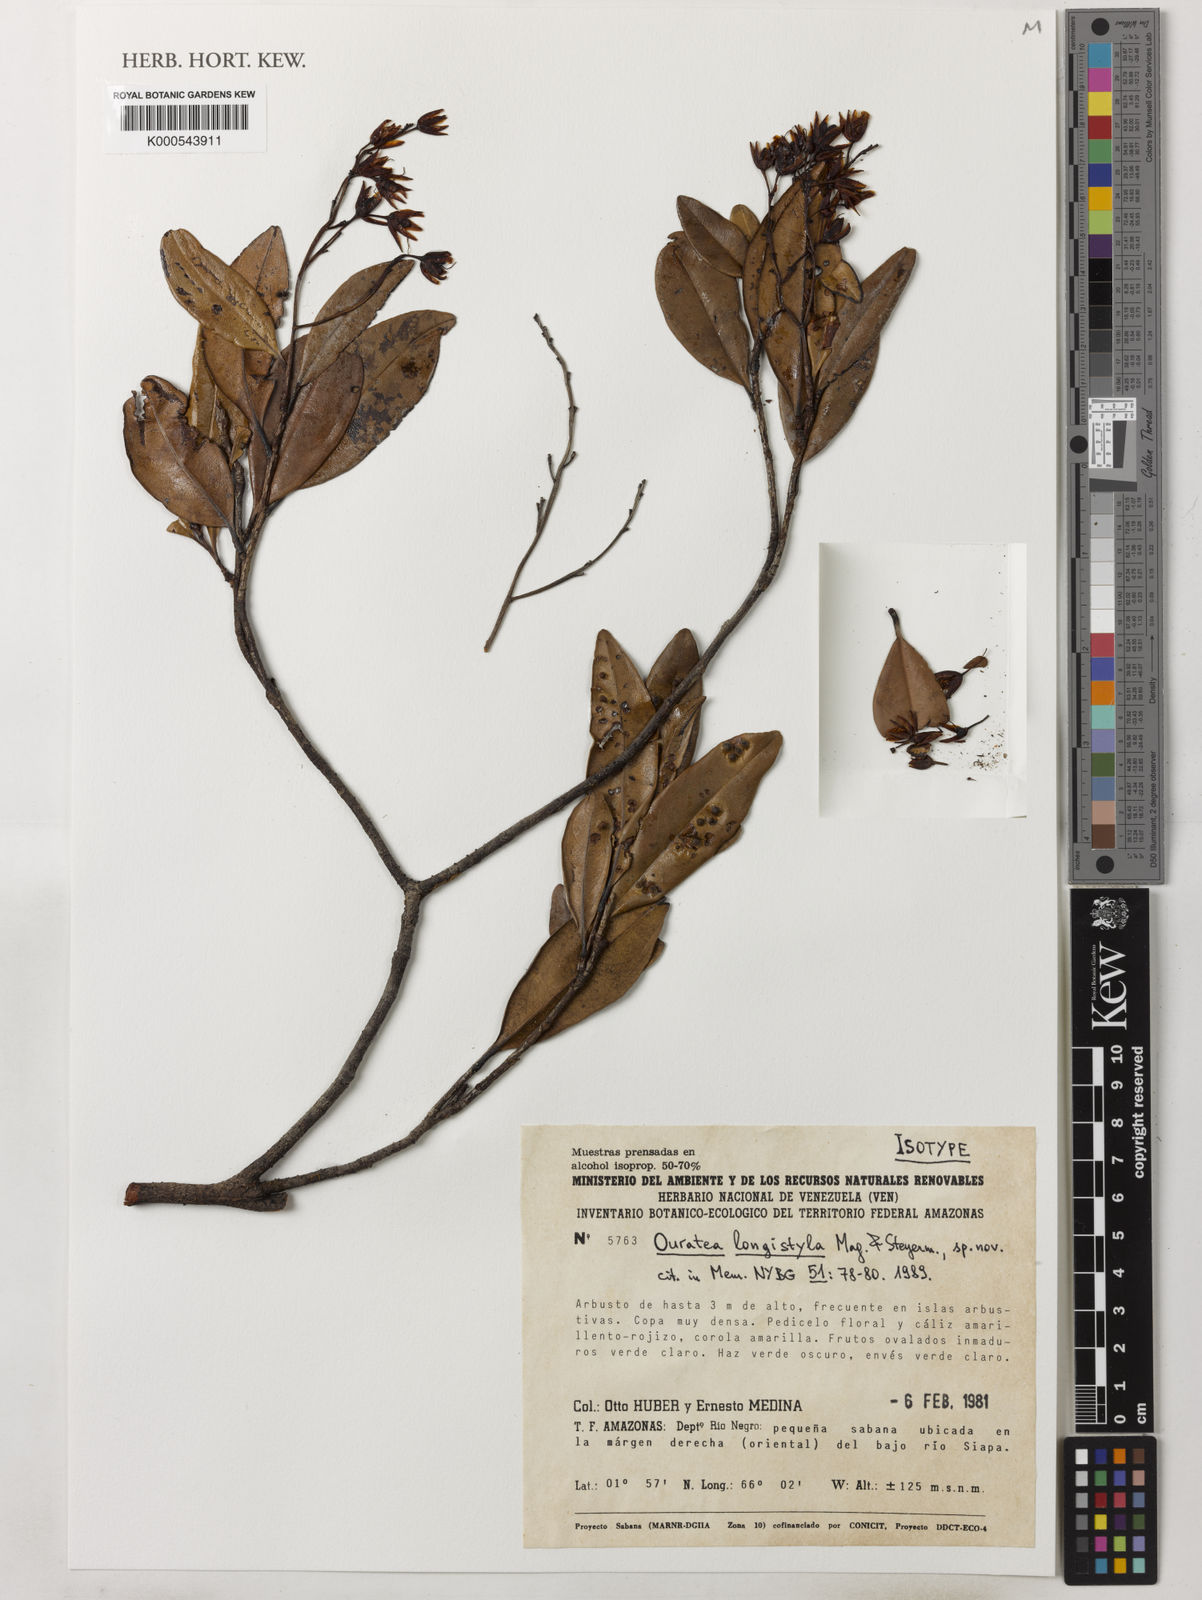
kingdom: Plantae
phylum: Tracheophyta
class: Magnoliopsida
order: Malpighiales
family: Ochnaceae
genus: Ouratea
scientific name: Ouratea longistyla
